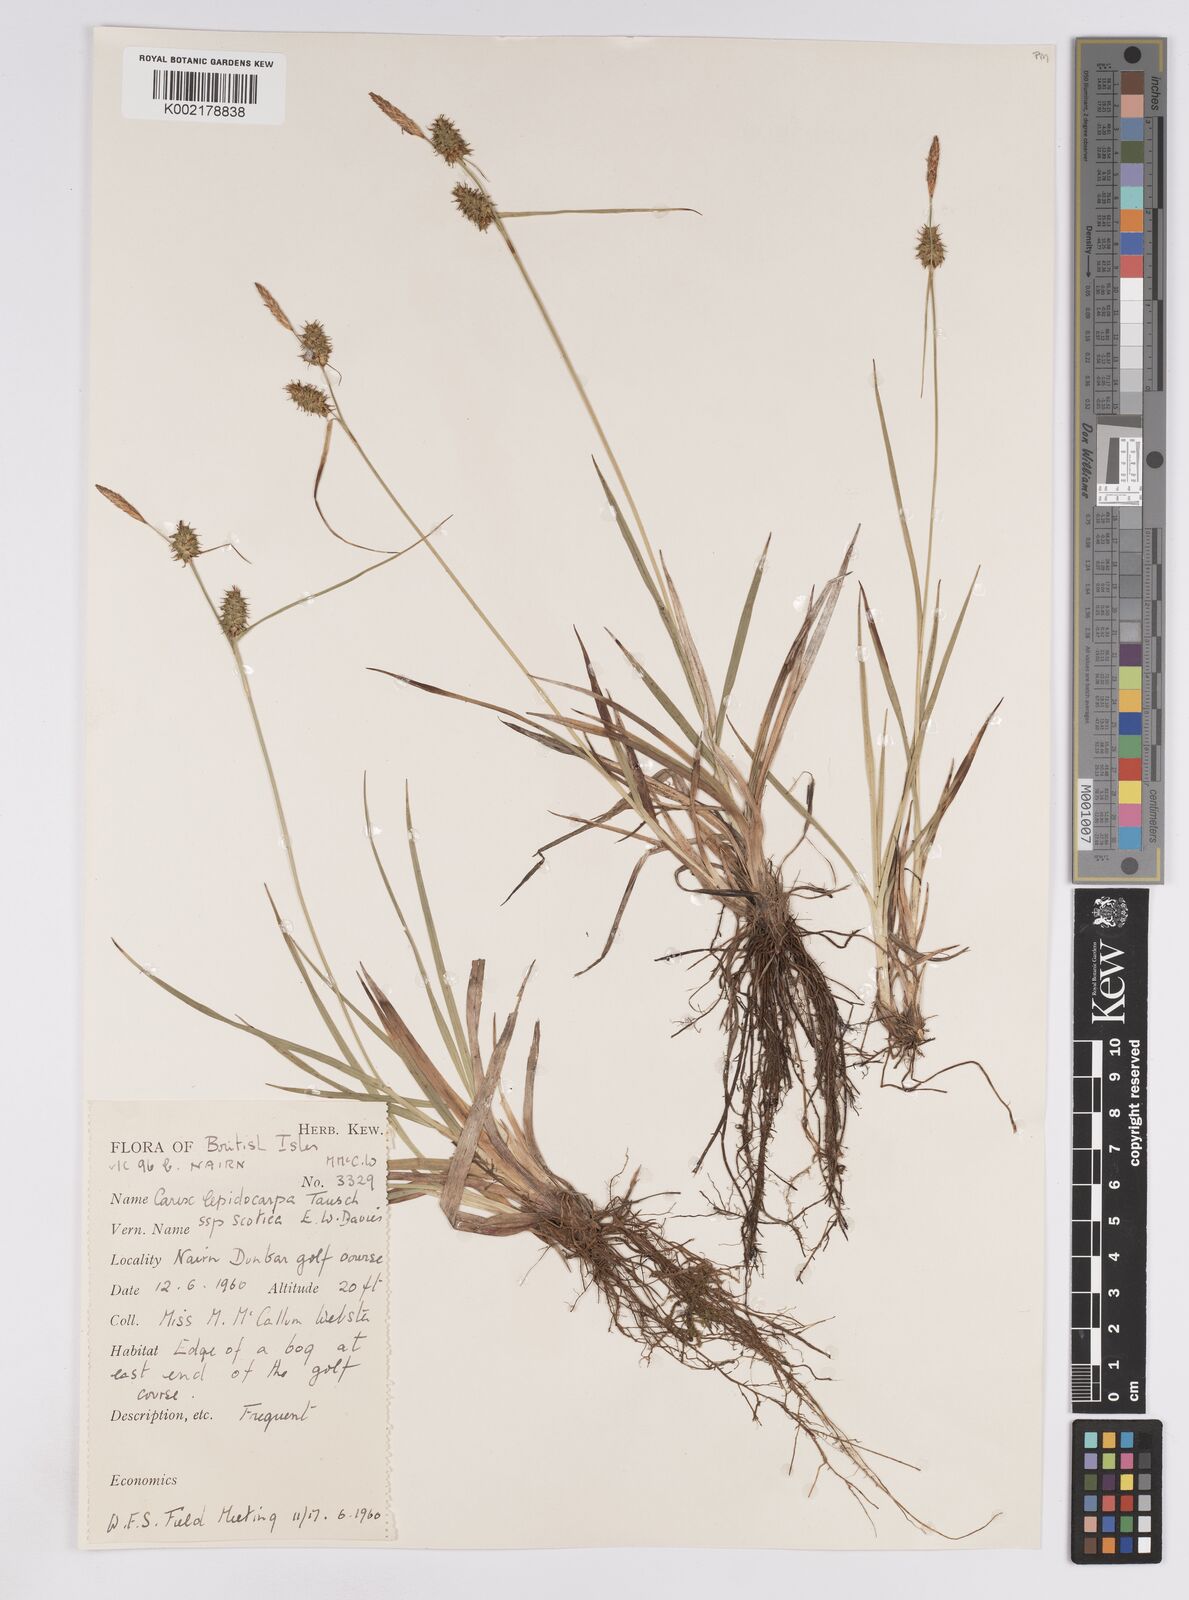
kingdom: Plantae
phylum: Tracheophyta
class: Liliopsida
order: Poales
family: Cyperaceae
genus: Carex
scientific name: Carex lepidocarpa
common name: Long-stalked yellow-sedge
